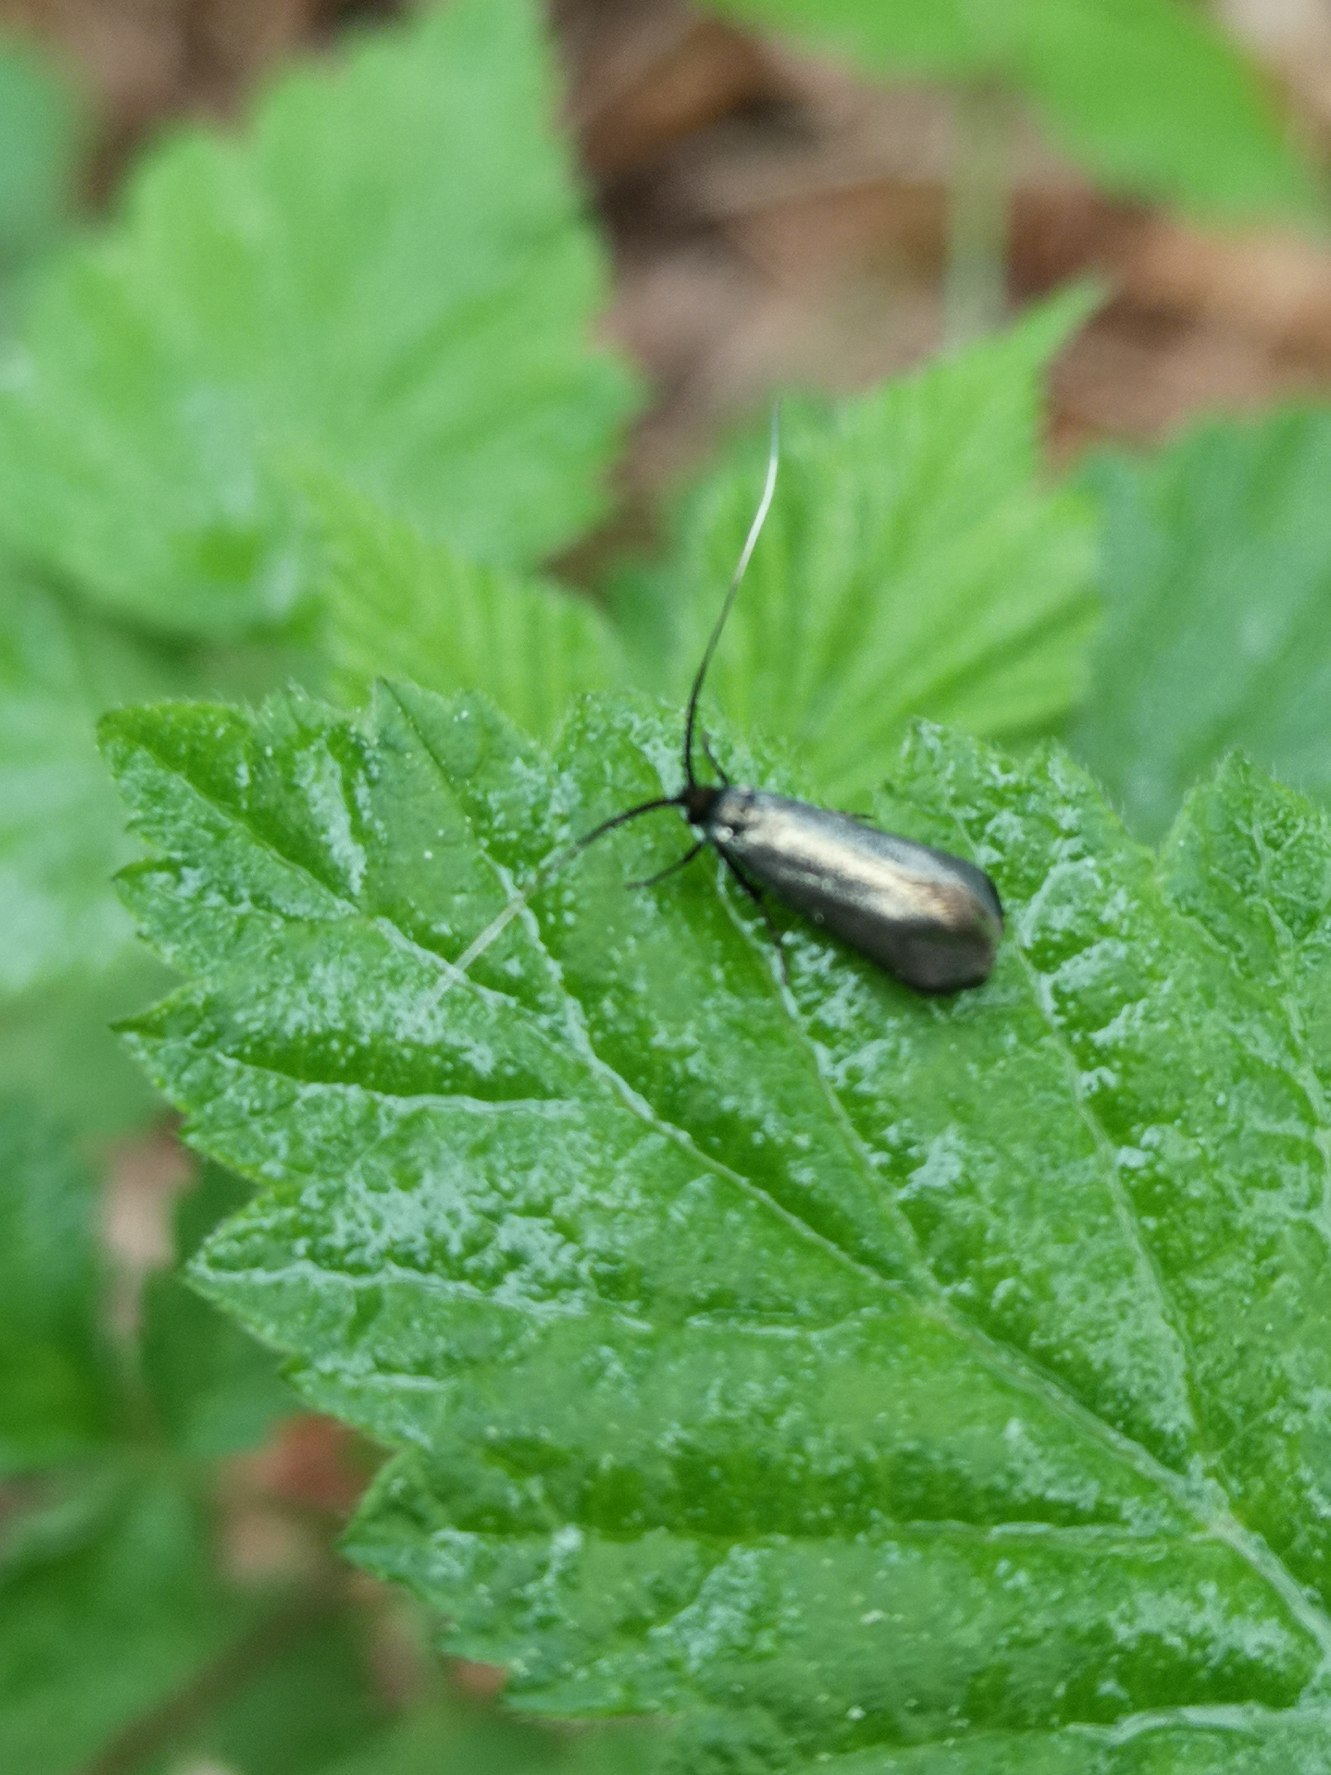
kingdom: Animalia
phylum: Arthropoda
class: Insecta
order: Lepidoptera
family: Adelidae
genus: Adela
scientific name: Adela viridella
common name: Egelanghornsmøl
